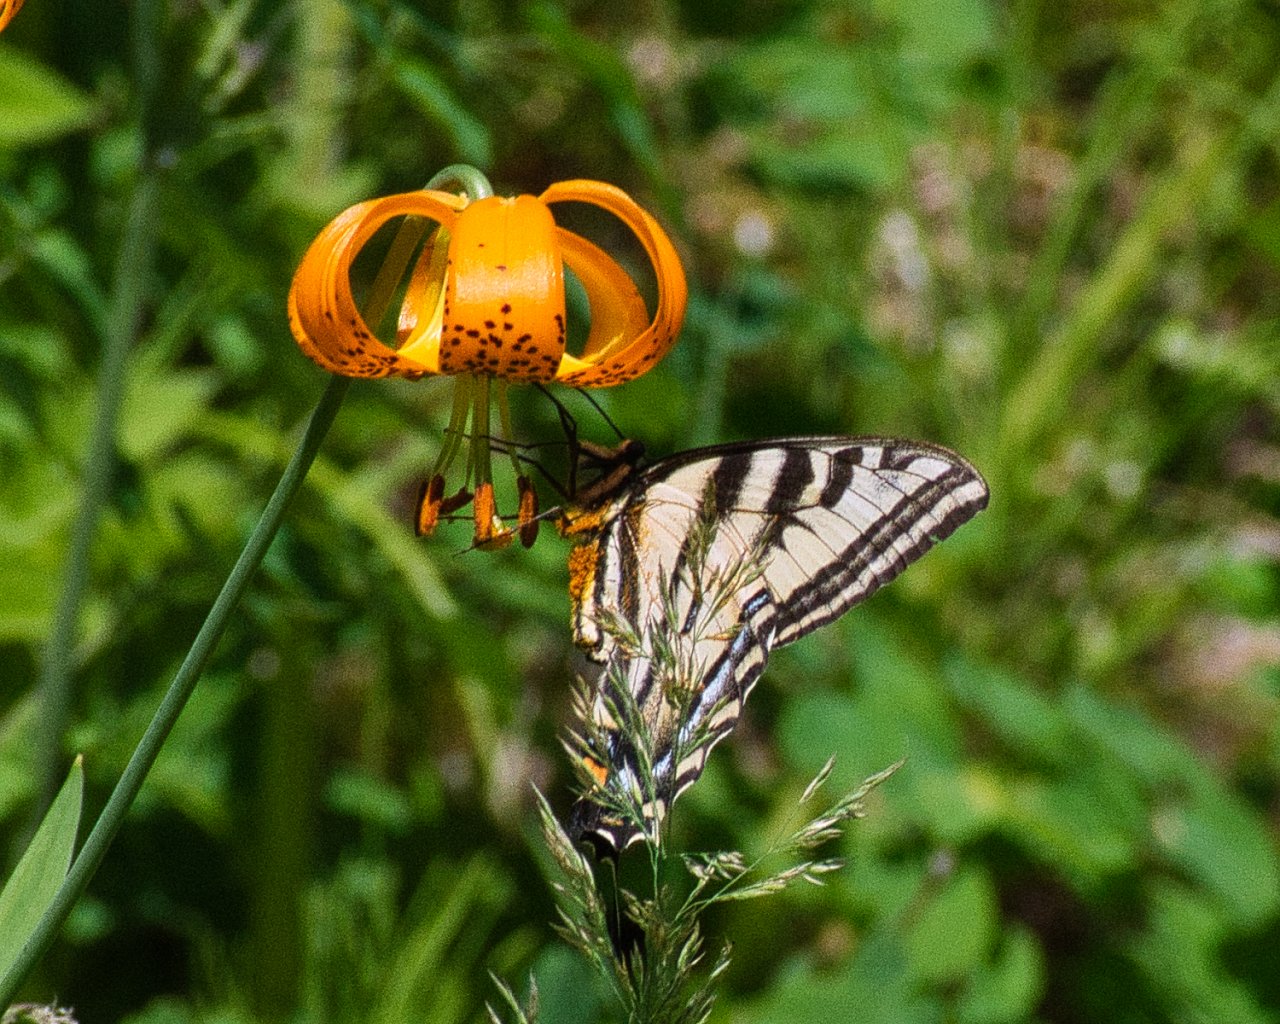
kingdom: Animalia
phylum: Arthropoda
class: Insecta
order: Lepidoptera
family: Papilionidae
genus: Pterourus
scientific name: Pterourus rutulus
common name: Western Tiger Swallowtail
